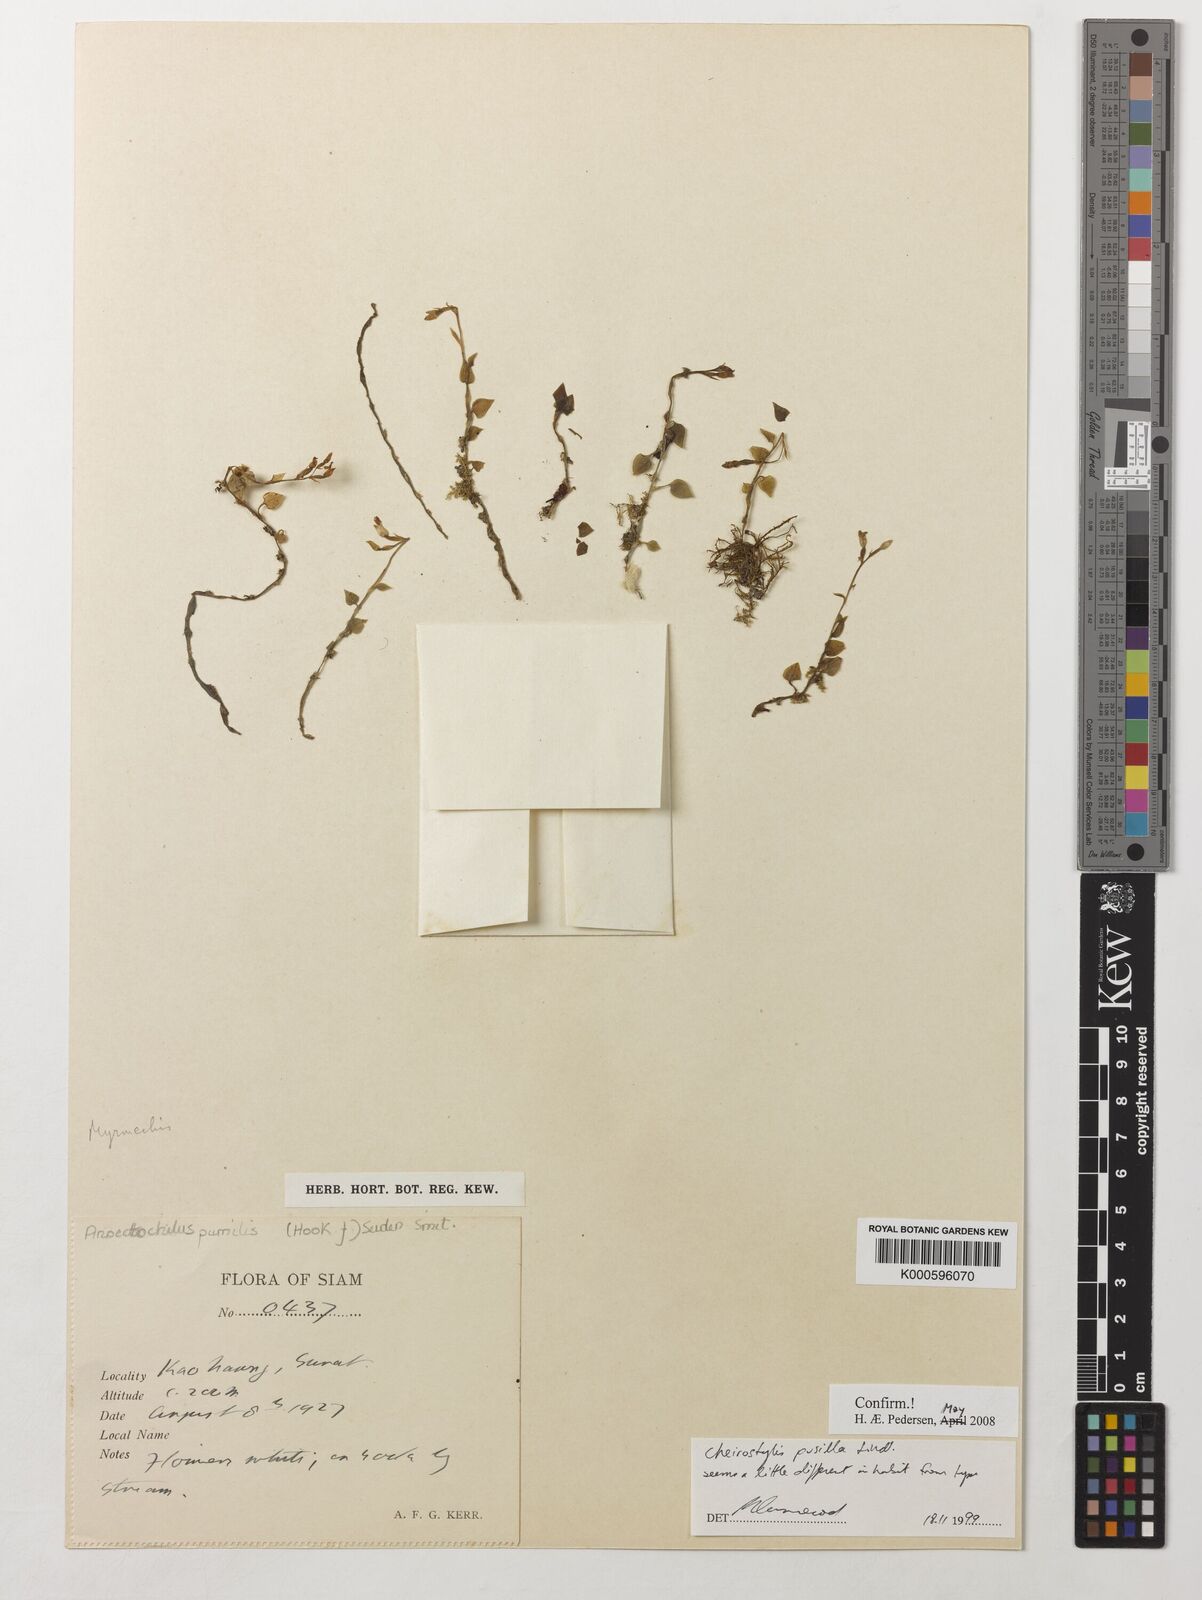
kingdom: Plantae
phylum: Tracheophyta
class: Liliopsida
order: Asparagales
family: Orchidaceae
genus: Cheirostylis
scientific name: Cheirostylis pusilla
